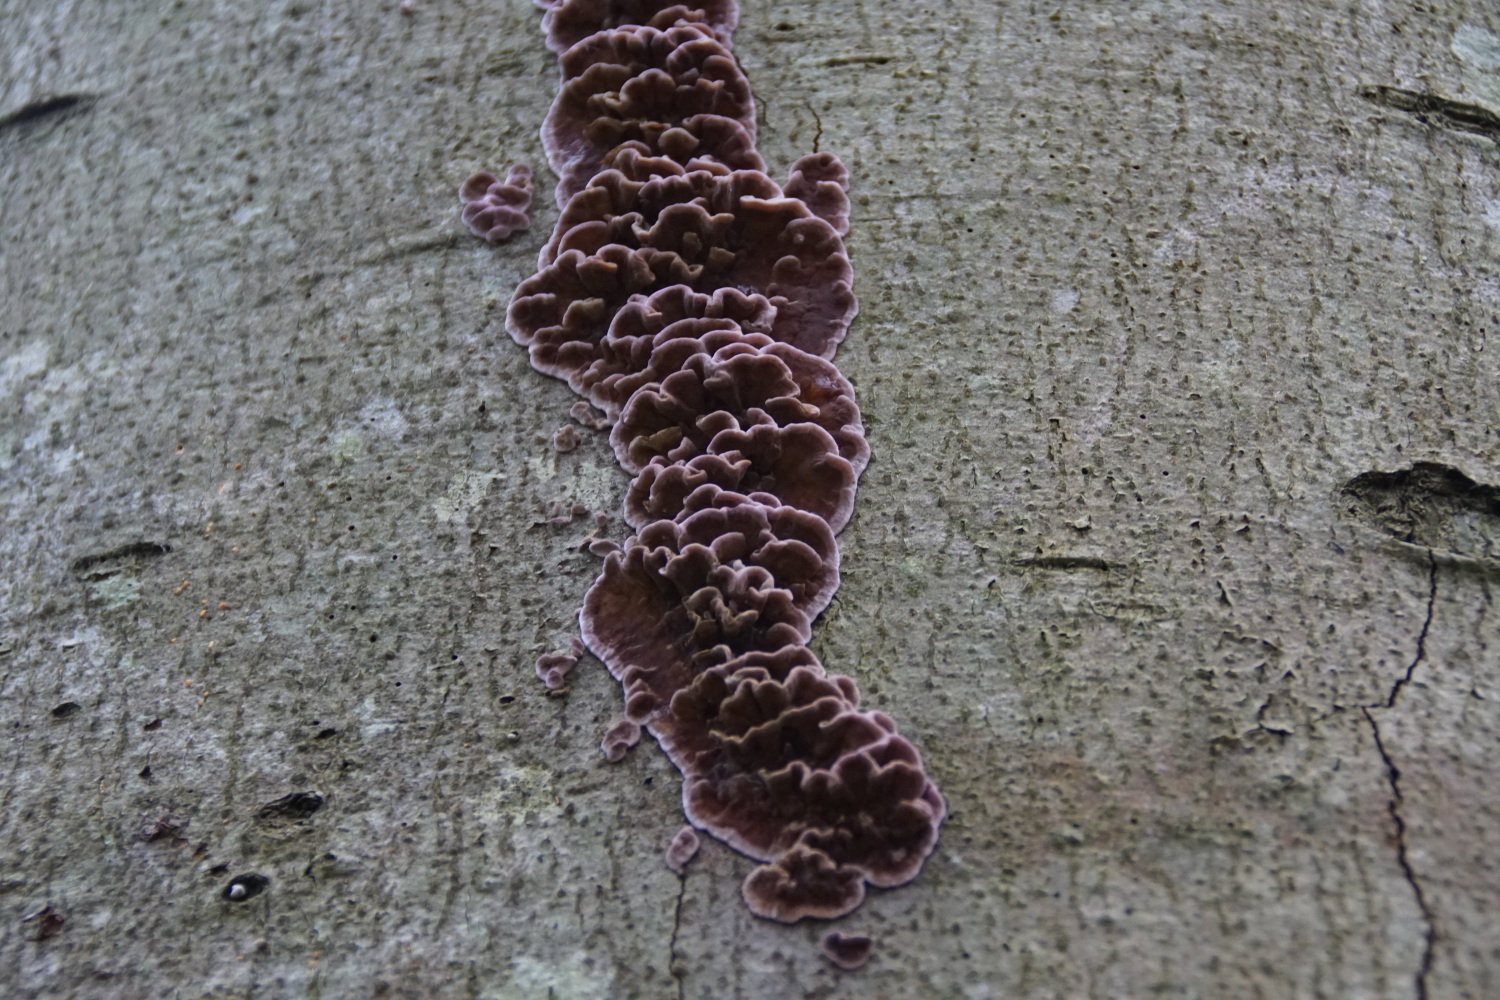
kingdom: Fungi
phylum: Basidiomycota
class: Agaricomycetes
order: Agaricales
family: Cyphellaceae
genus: Chondrostereum
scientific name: Chondrostereum purpureum
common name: purpurlædersvamp
